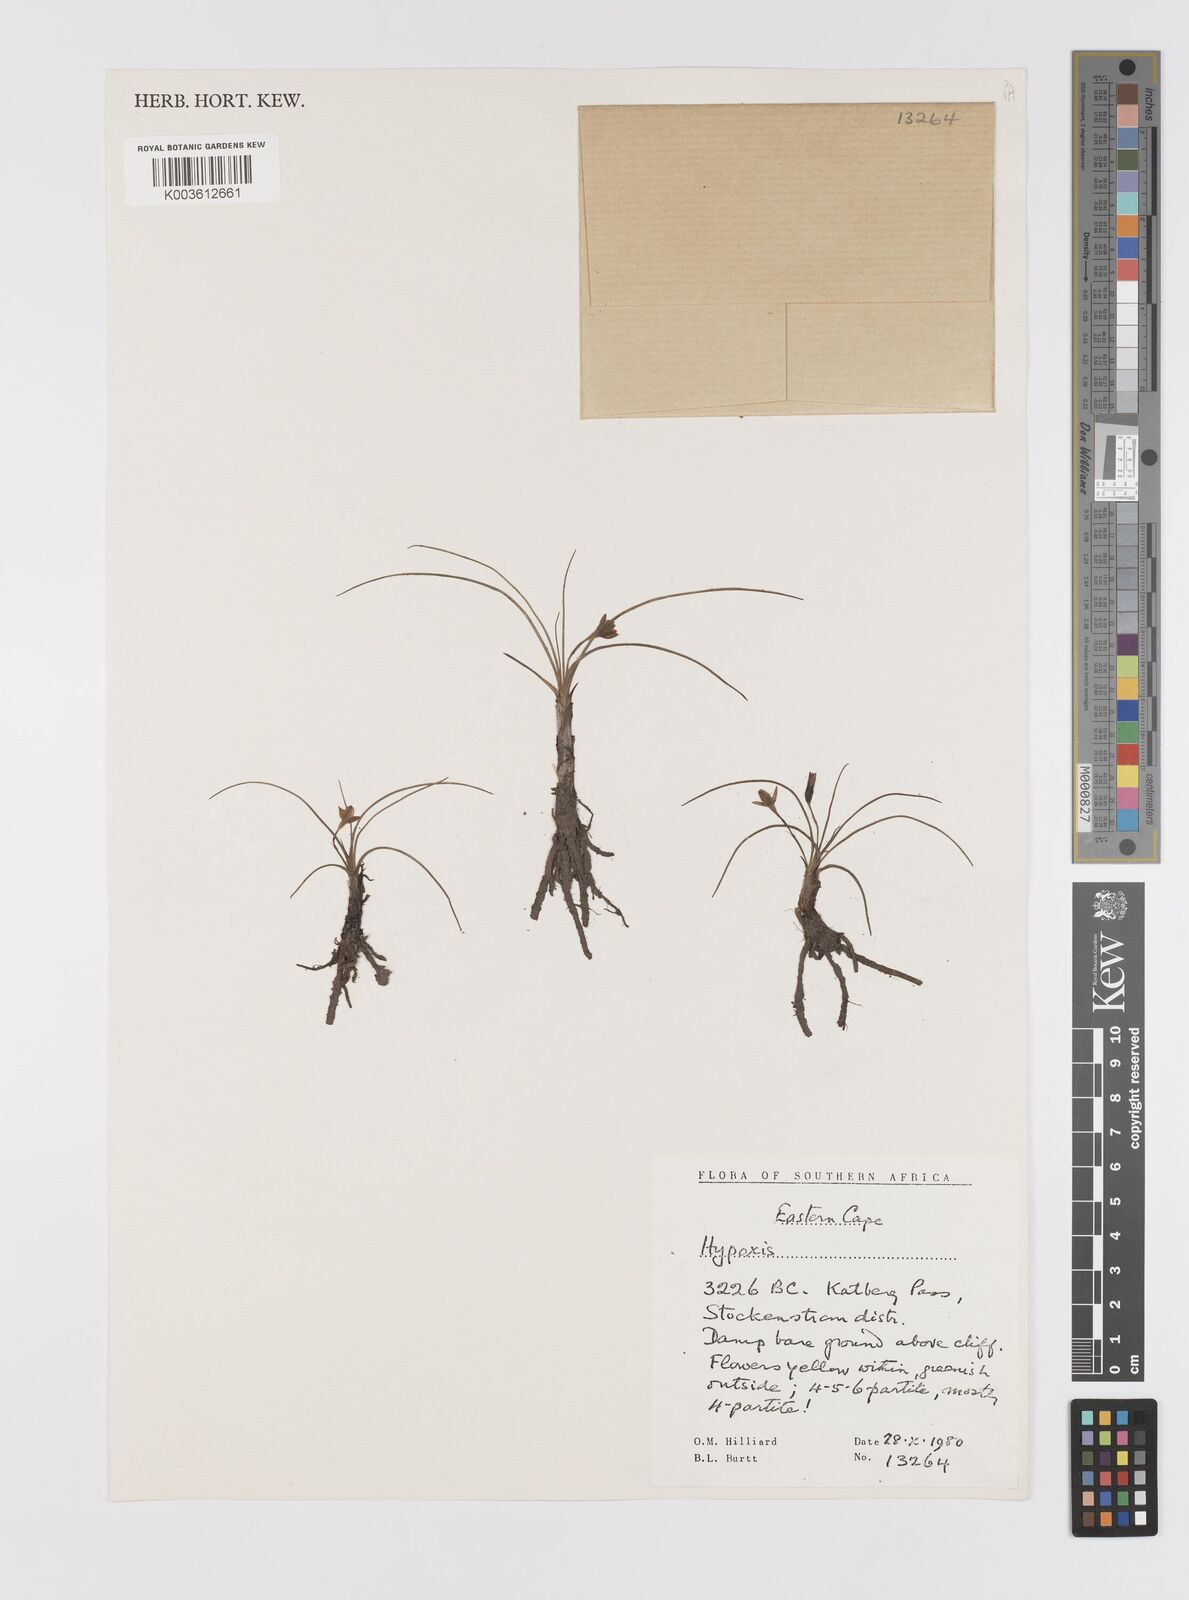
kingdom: Plantae
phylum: Tracheophyta
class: Liliopsida
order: Asparagales
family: Hypoxidaceae
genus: Hypoxis
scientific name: Hypoxis filiformis
